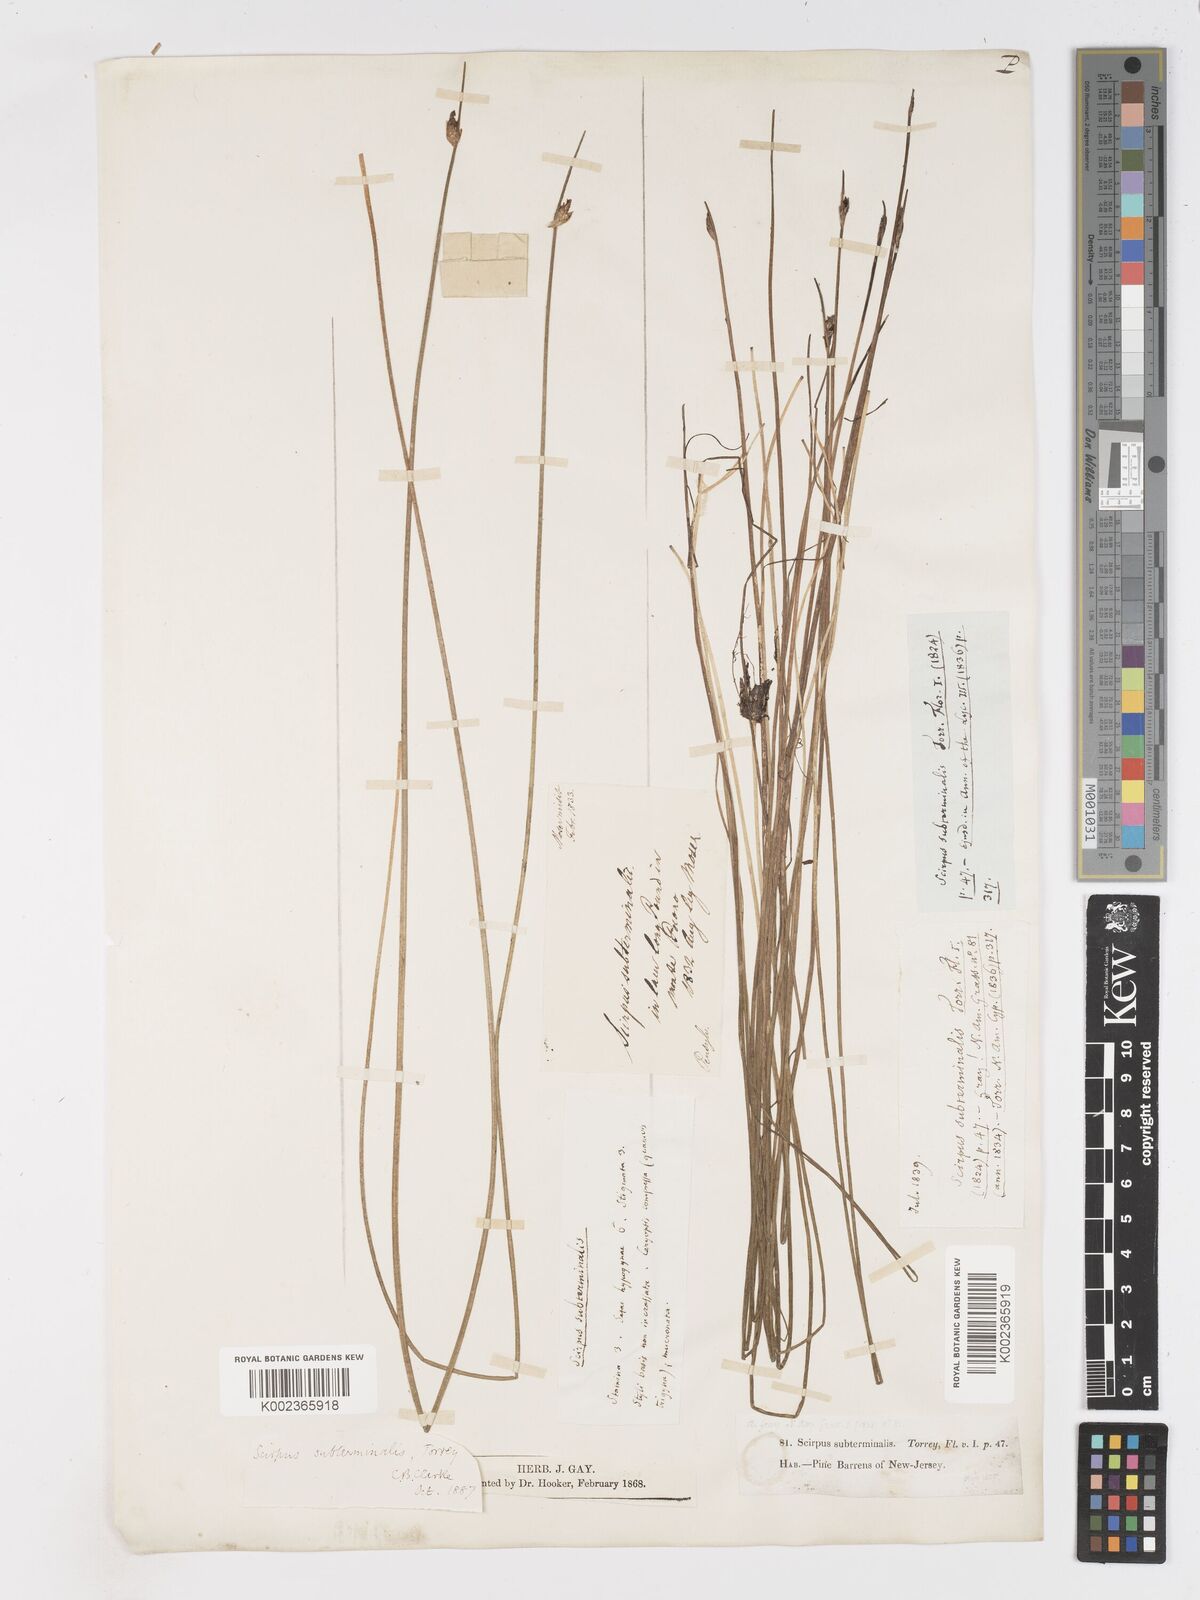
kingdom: Plantae
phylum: Tracheophyta
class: Liliopsida
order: Poales
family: Cyperaceae
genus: Schoenoplectus
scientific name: Schoenoplectus subterminalis
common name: Swaying bulrush
